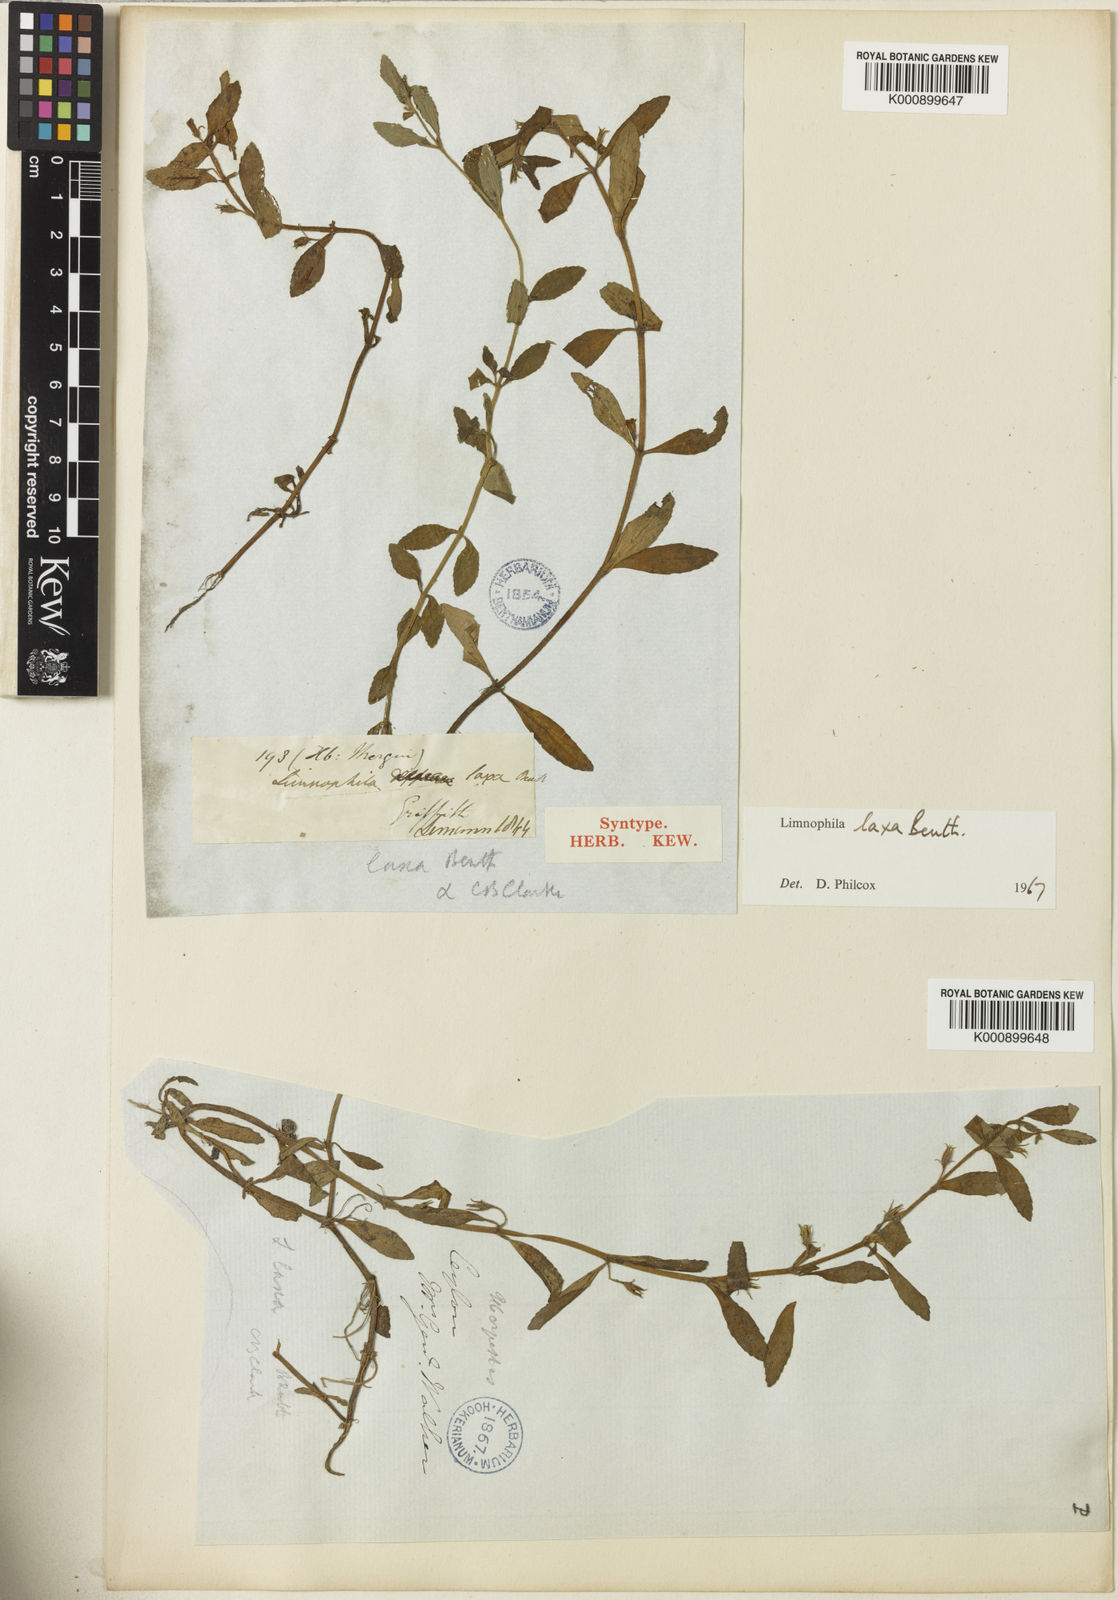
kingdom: Plantae
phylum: Tracheophyta
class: Magnoliopsida
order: Lamiales
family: Plantaginaceae
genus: Limnophila
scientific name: Limnophila laxa
